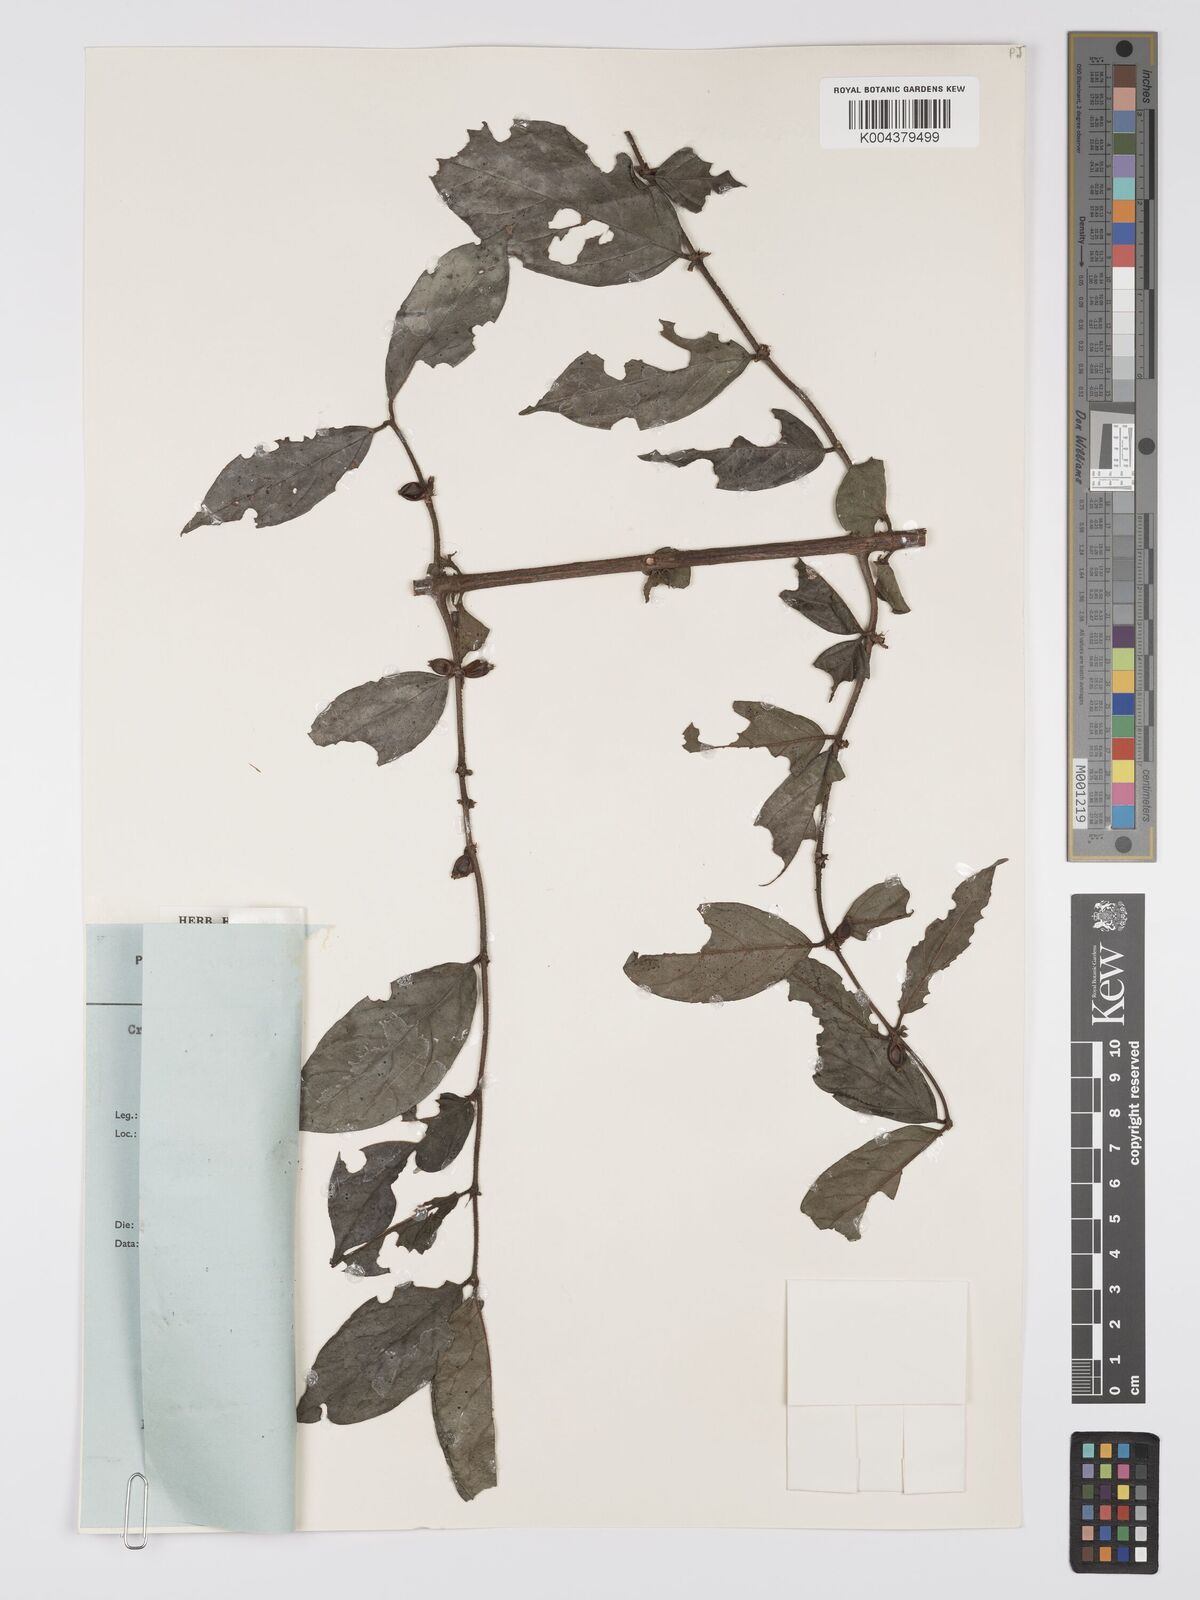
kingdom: Plantae
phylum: Tracheophyta
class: Magnoliopsida
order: Gentianales
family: Rubiaceae
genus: Cremaspora
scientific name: Cremaspora triflora
